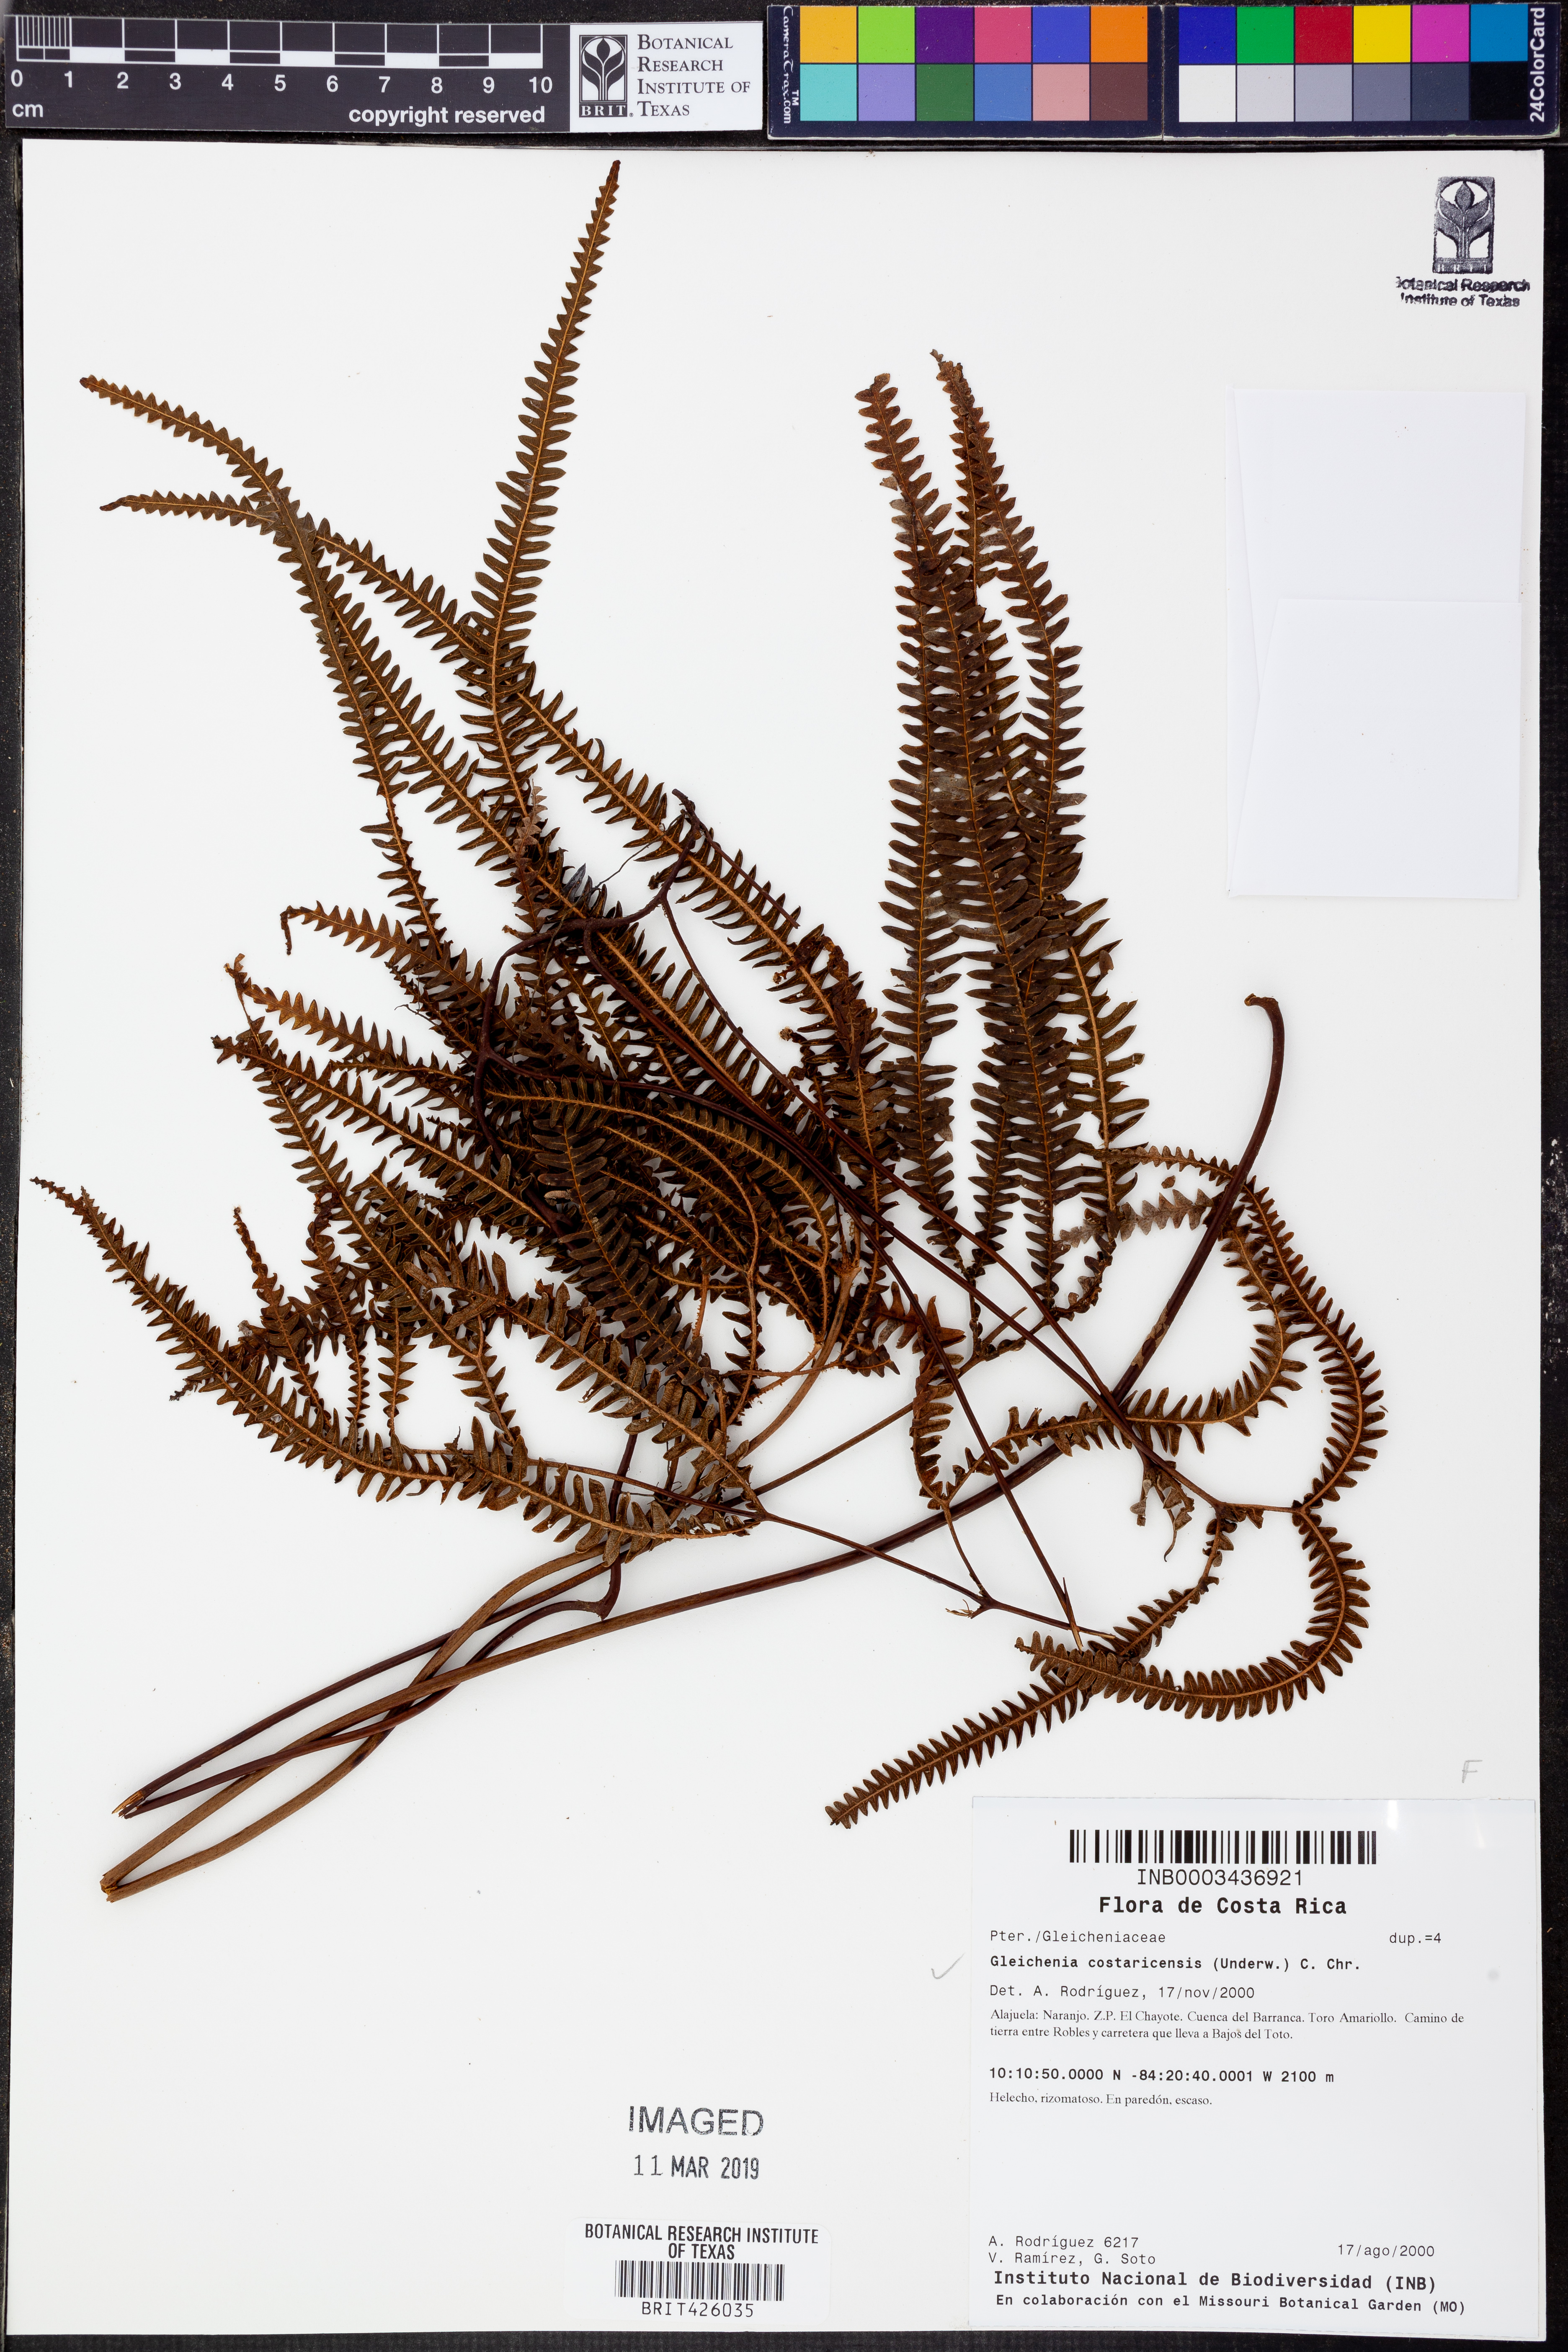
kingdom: Plantae
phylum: Tracheophyta
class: Polypodiopsida
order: Gleicheniales
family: Gleicheniaceae
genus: Sticherus
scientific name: Sticherus revolutus
